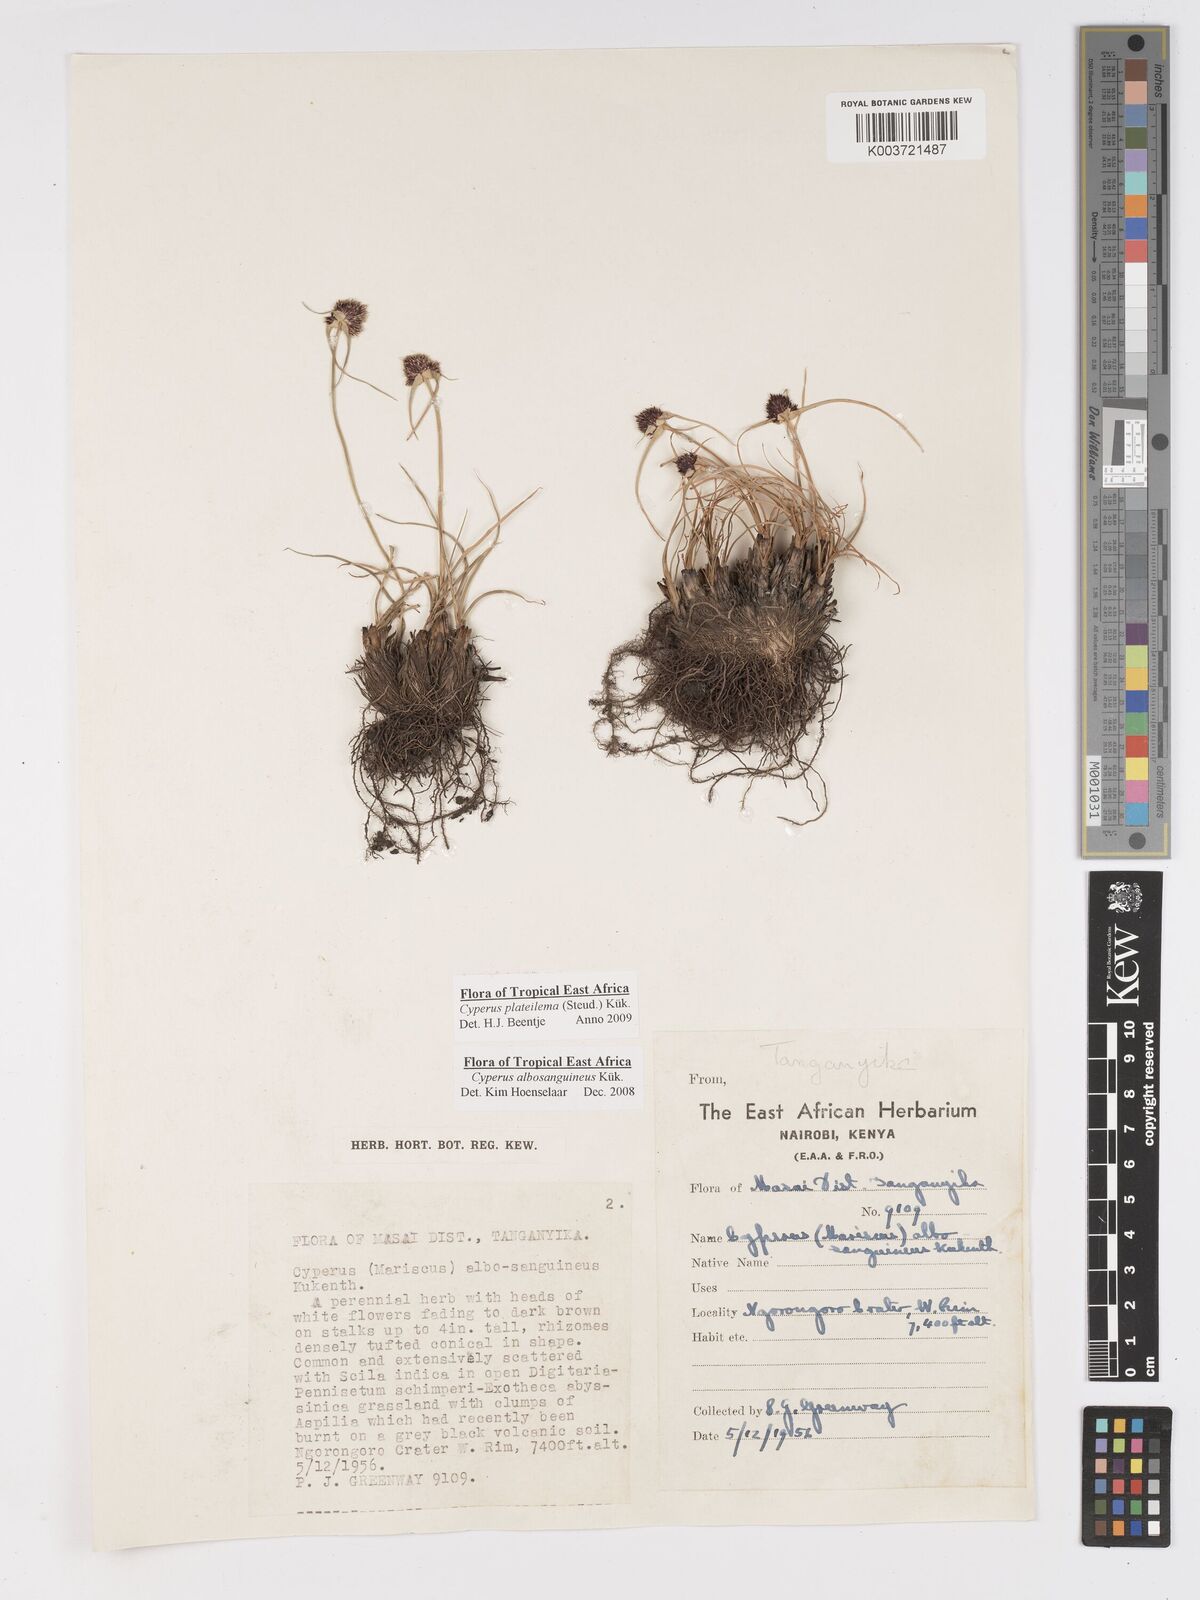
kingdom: Plantae
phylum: Tracheophyta
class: Liliopsida
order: Poales
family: Cyperaceae
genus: Cyperus
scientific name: Cyperus plateilema
